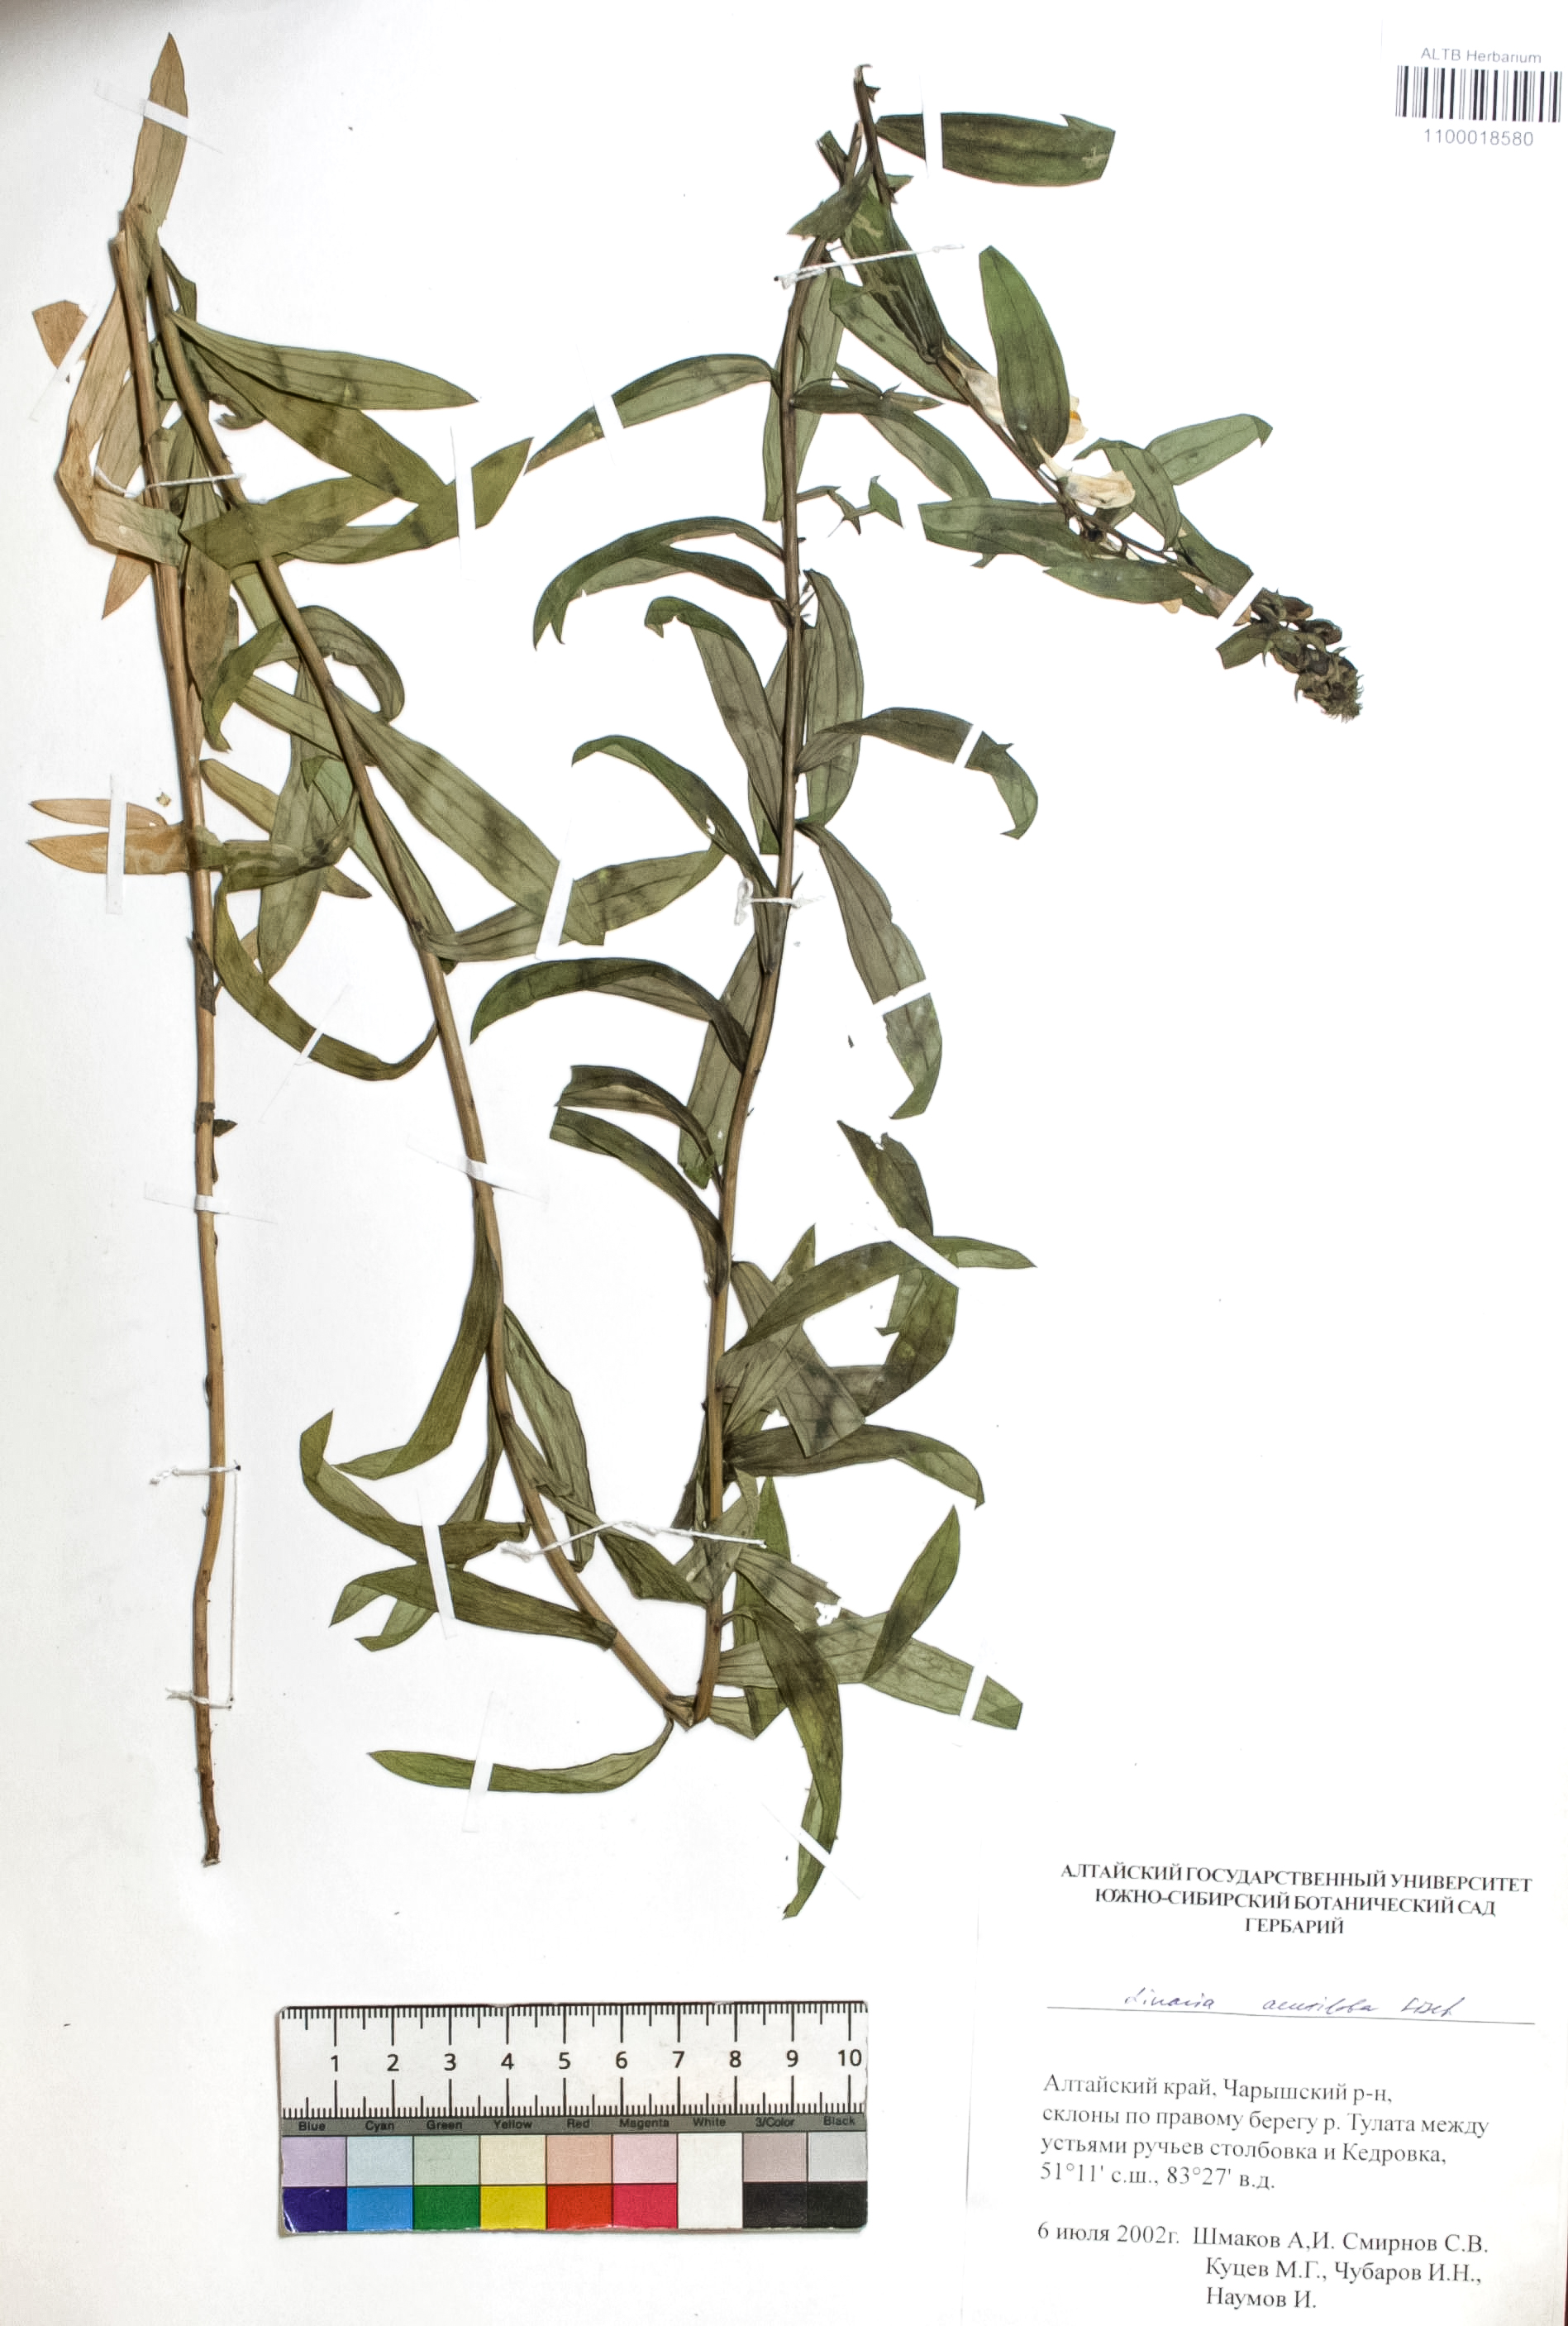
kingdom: Plantae
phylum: Tracheophyta
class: Magnoliopsida
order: Lamiales
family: Plantaginaceae
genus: Linaria
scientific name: Linaria acutiloba
